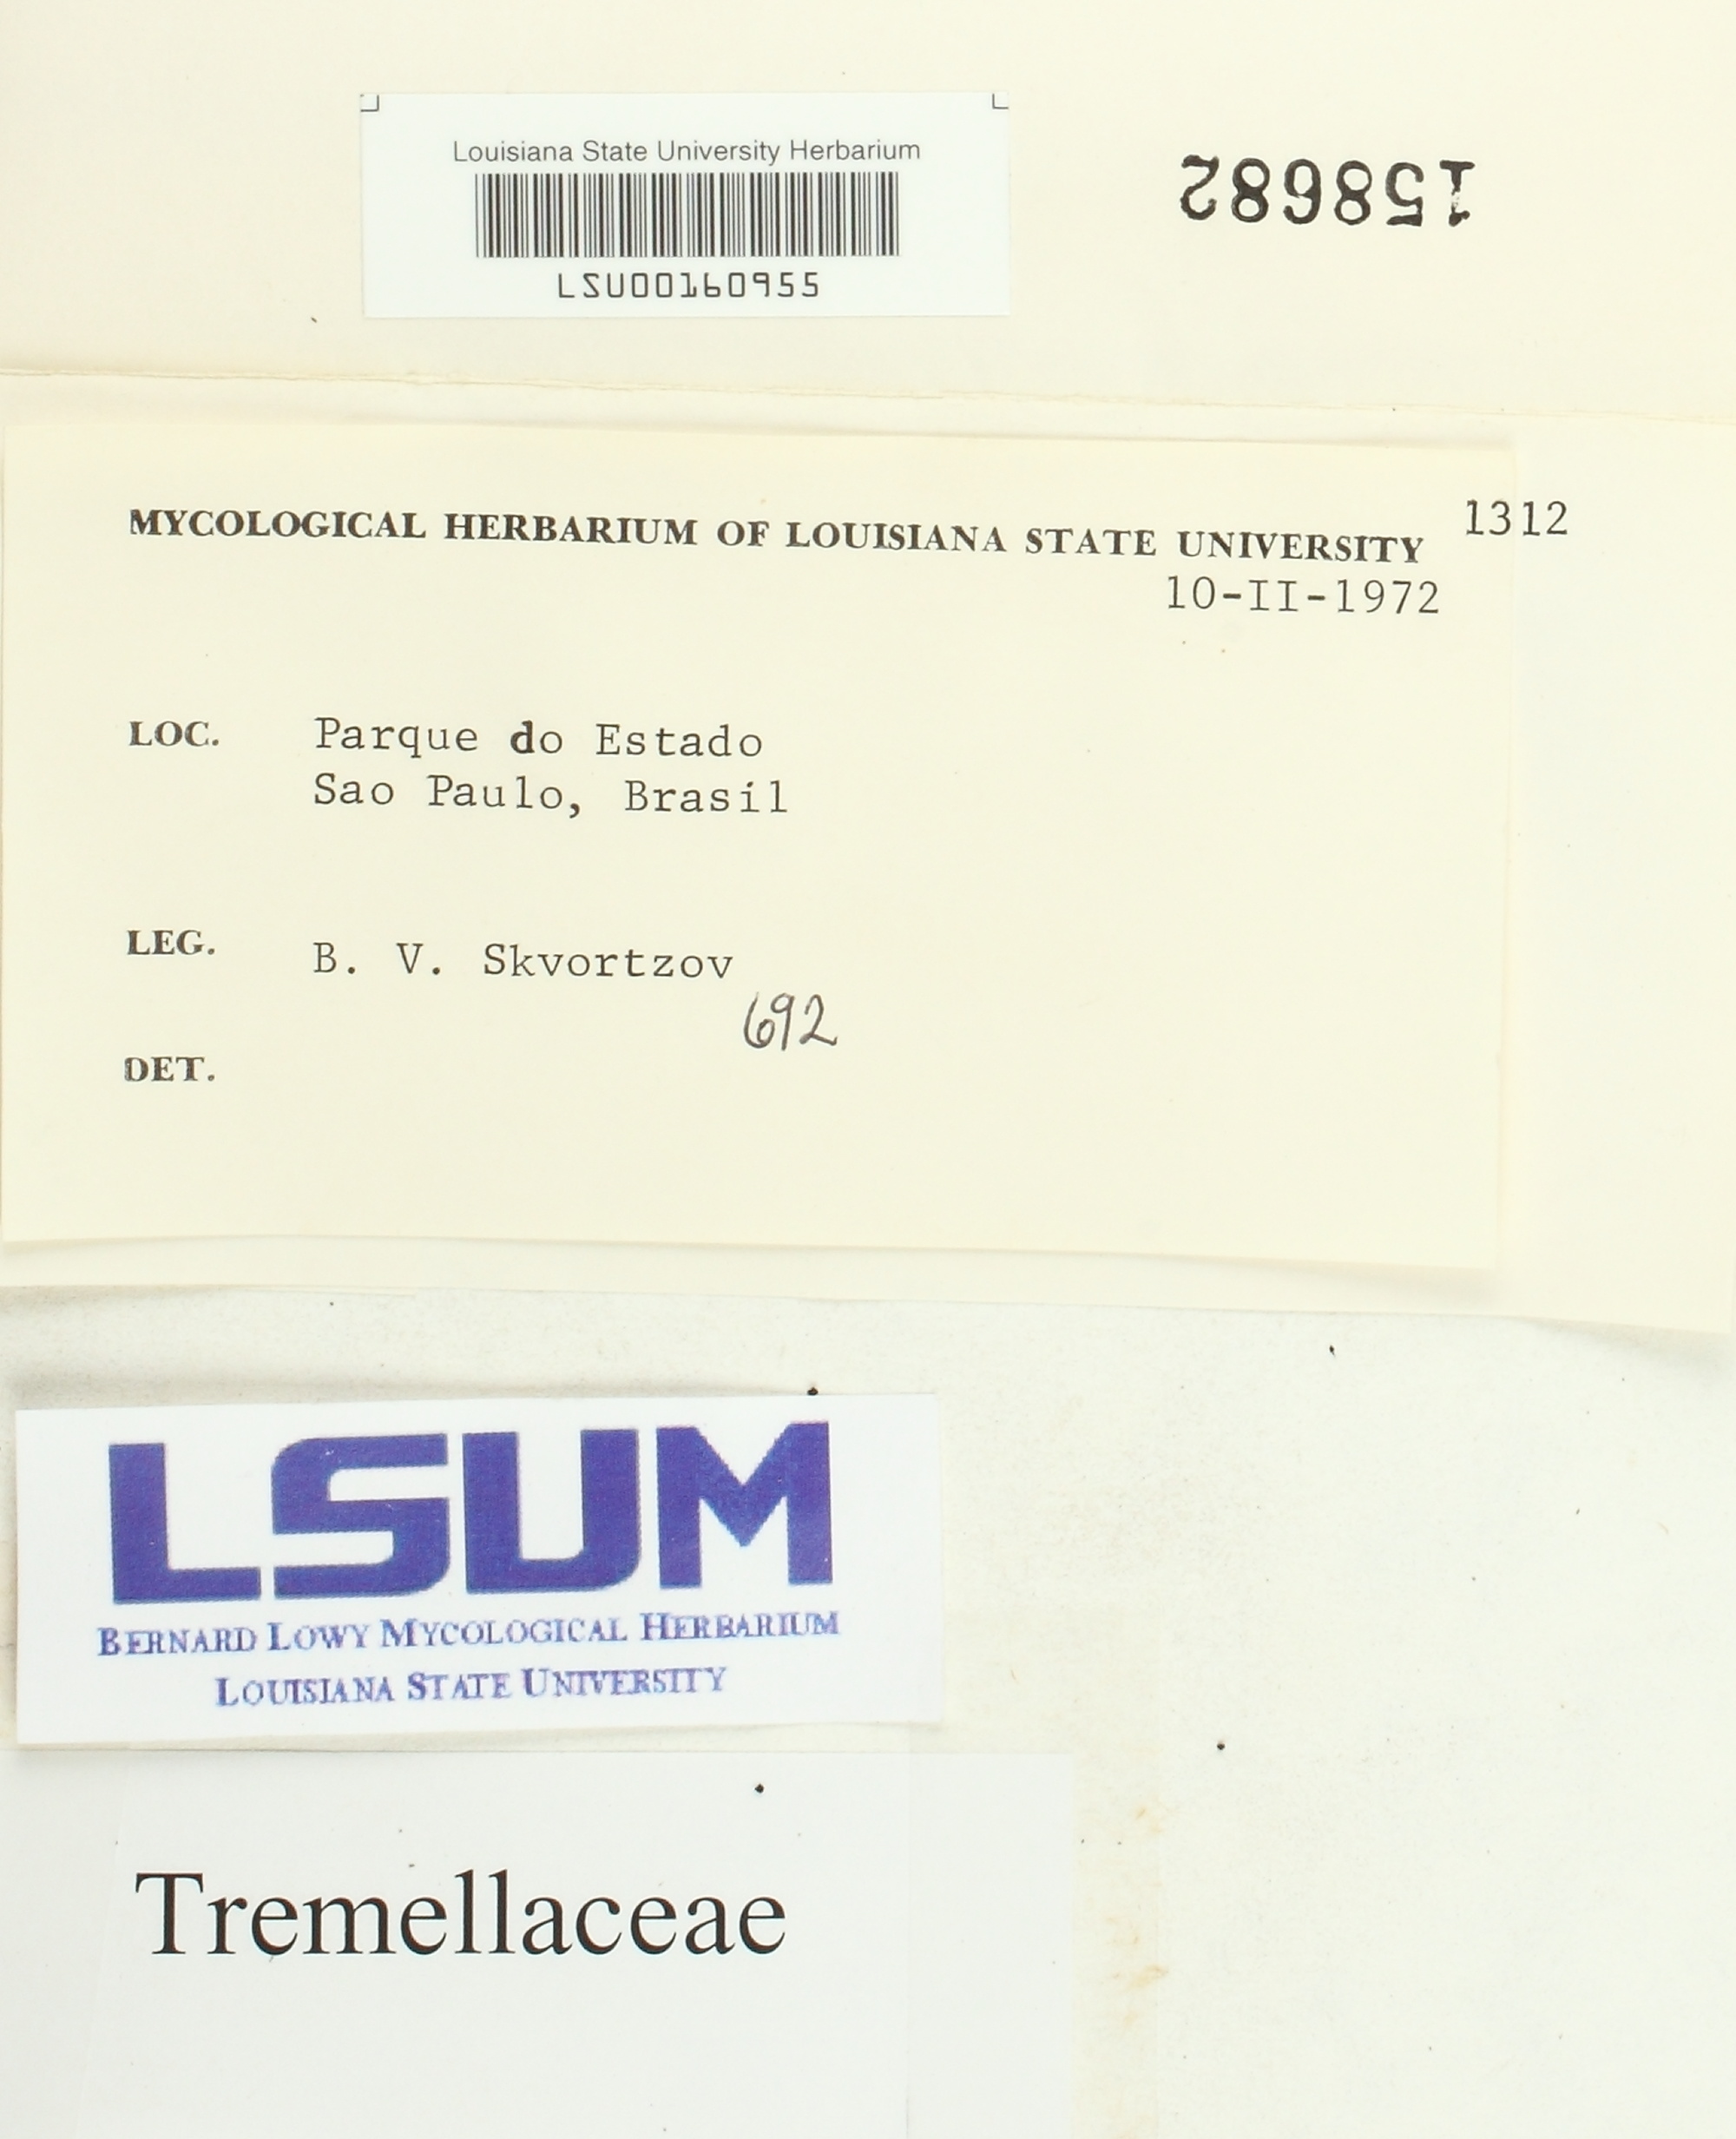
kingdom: Fungi
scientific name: Fungi
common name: Fungi
